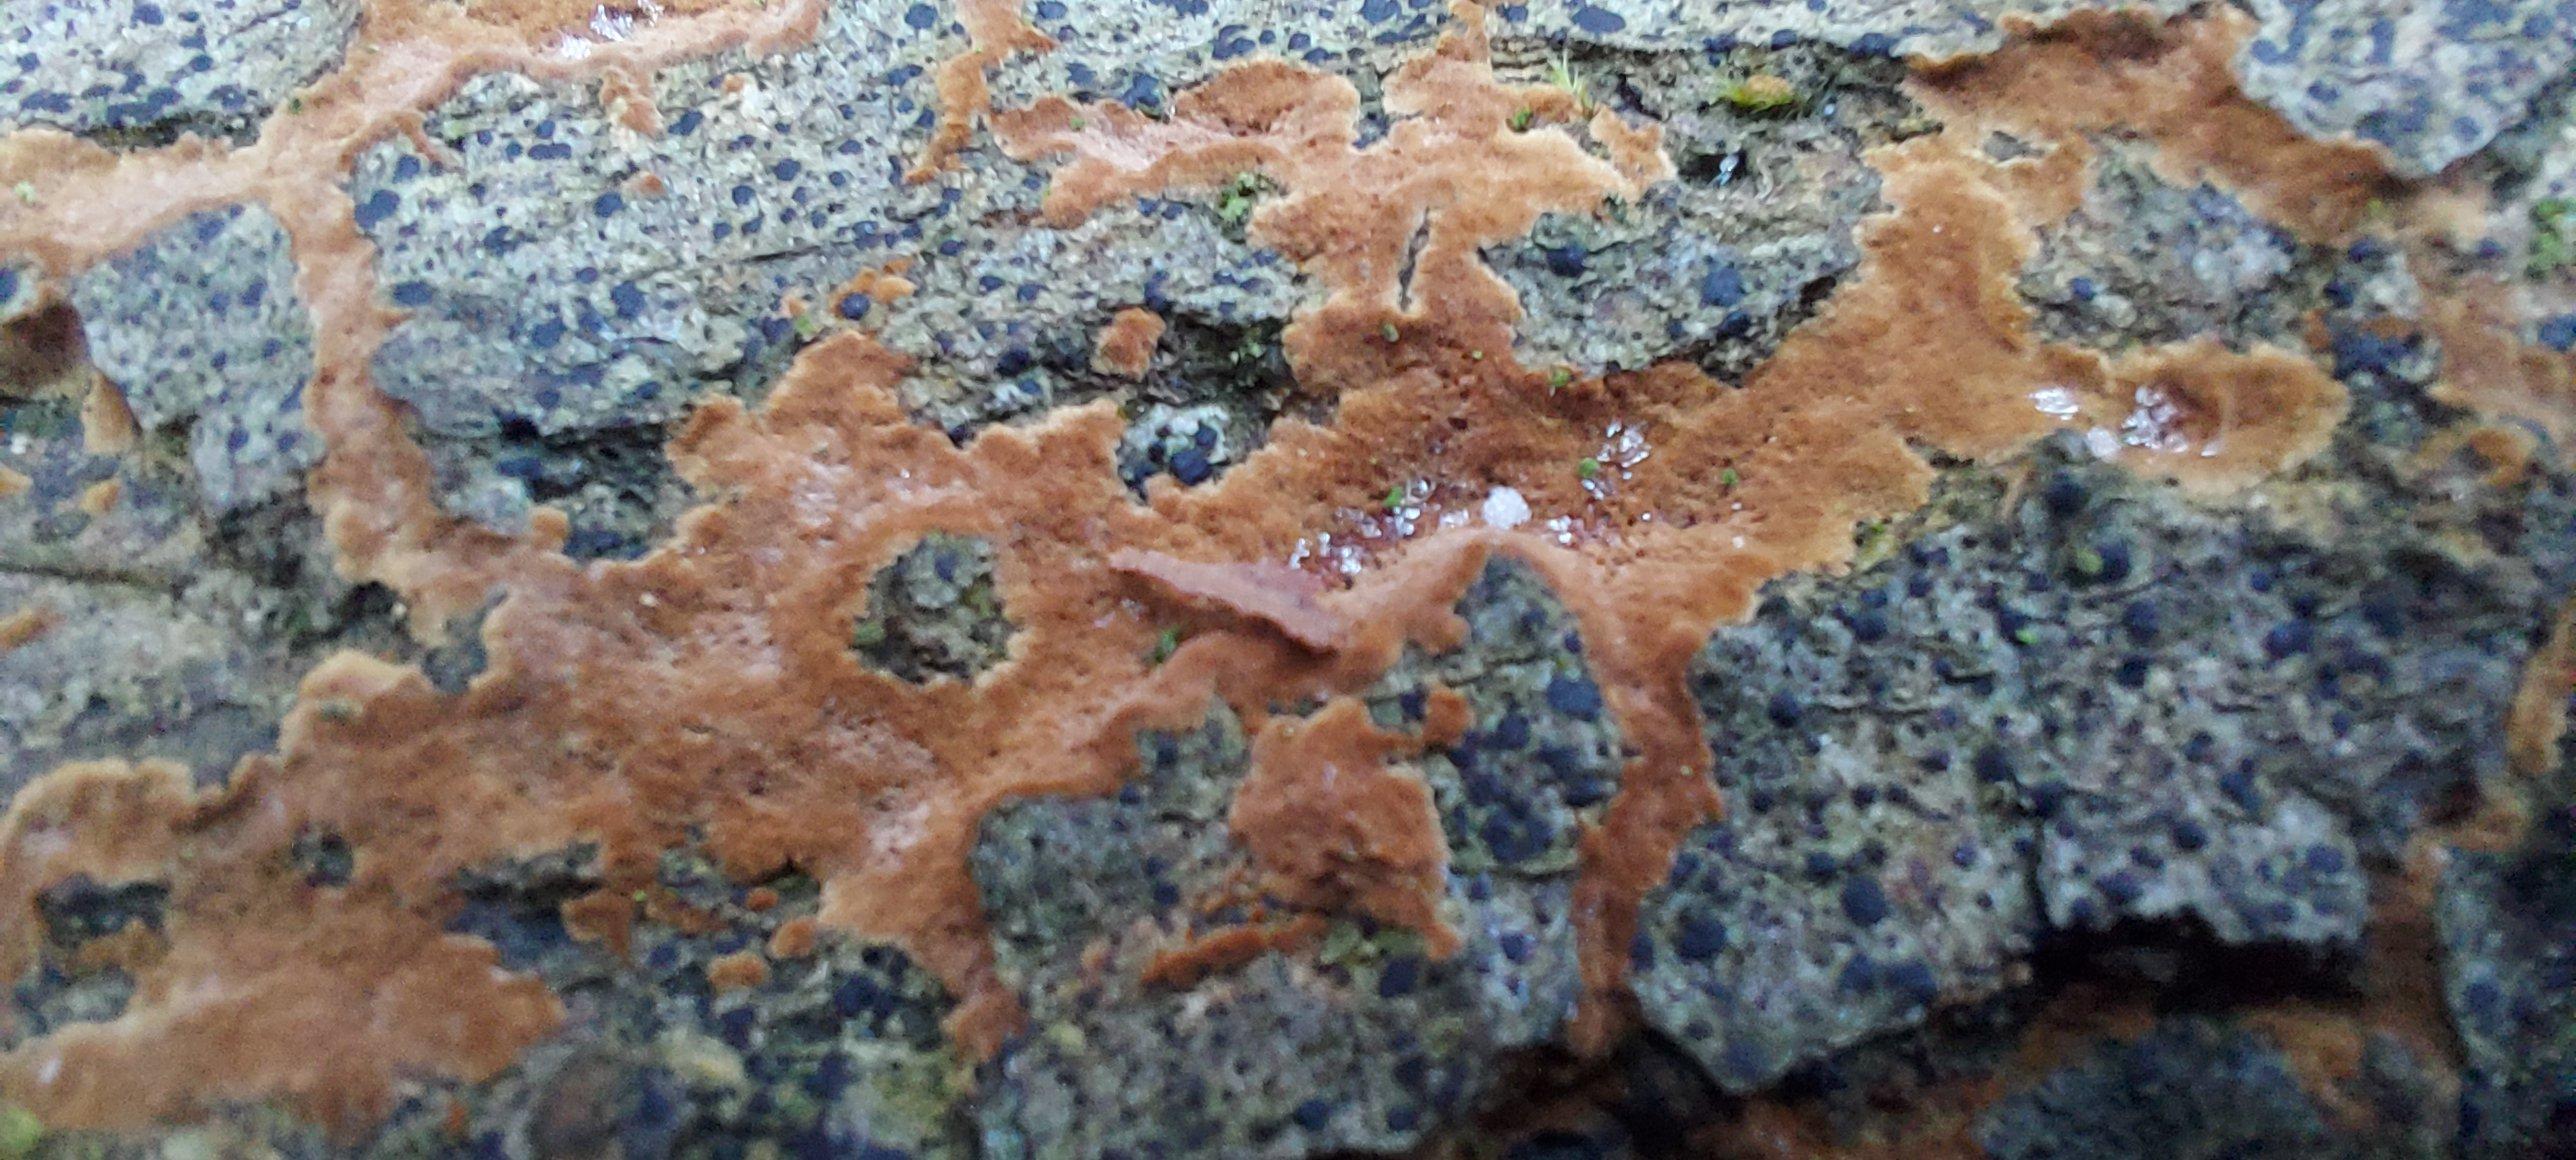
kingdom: Fungi
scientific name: Fungi
